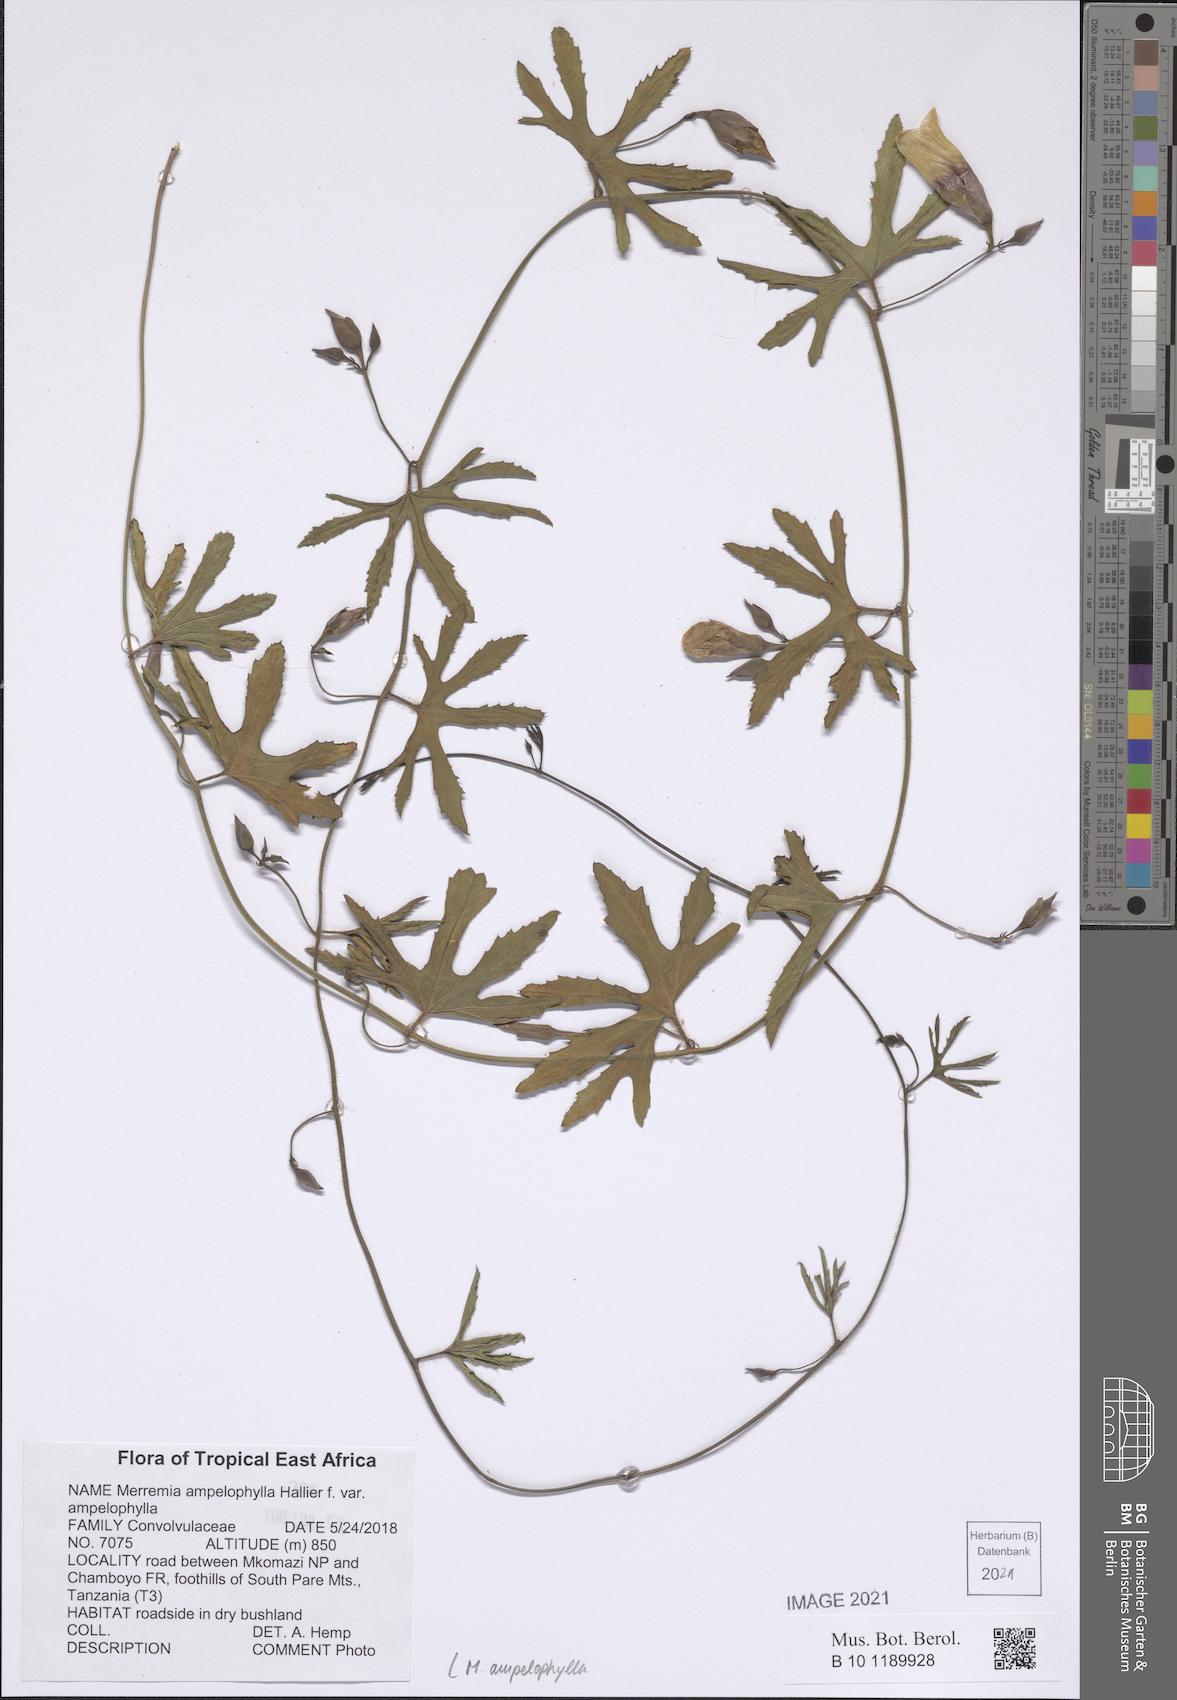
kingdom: Plantae
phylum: Tracheophyta
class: Magnoliopsida
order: Solanales
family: Convolvulaceae
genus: Distimake
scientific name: Distimake ampelophyllus
